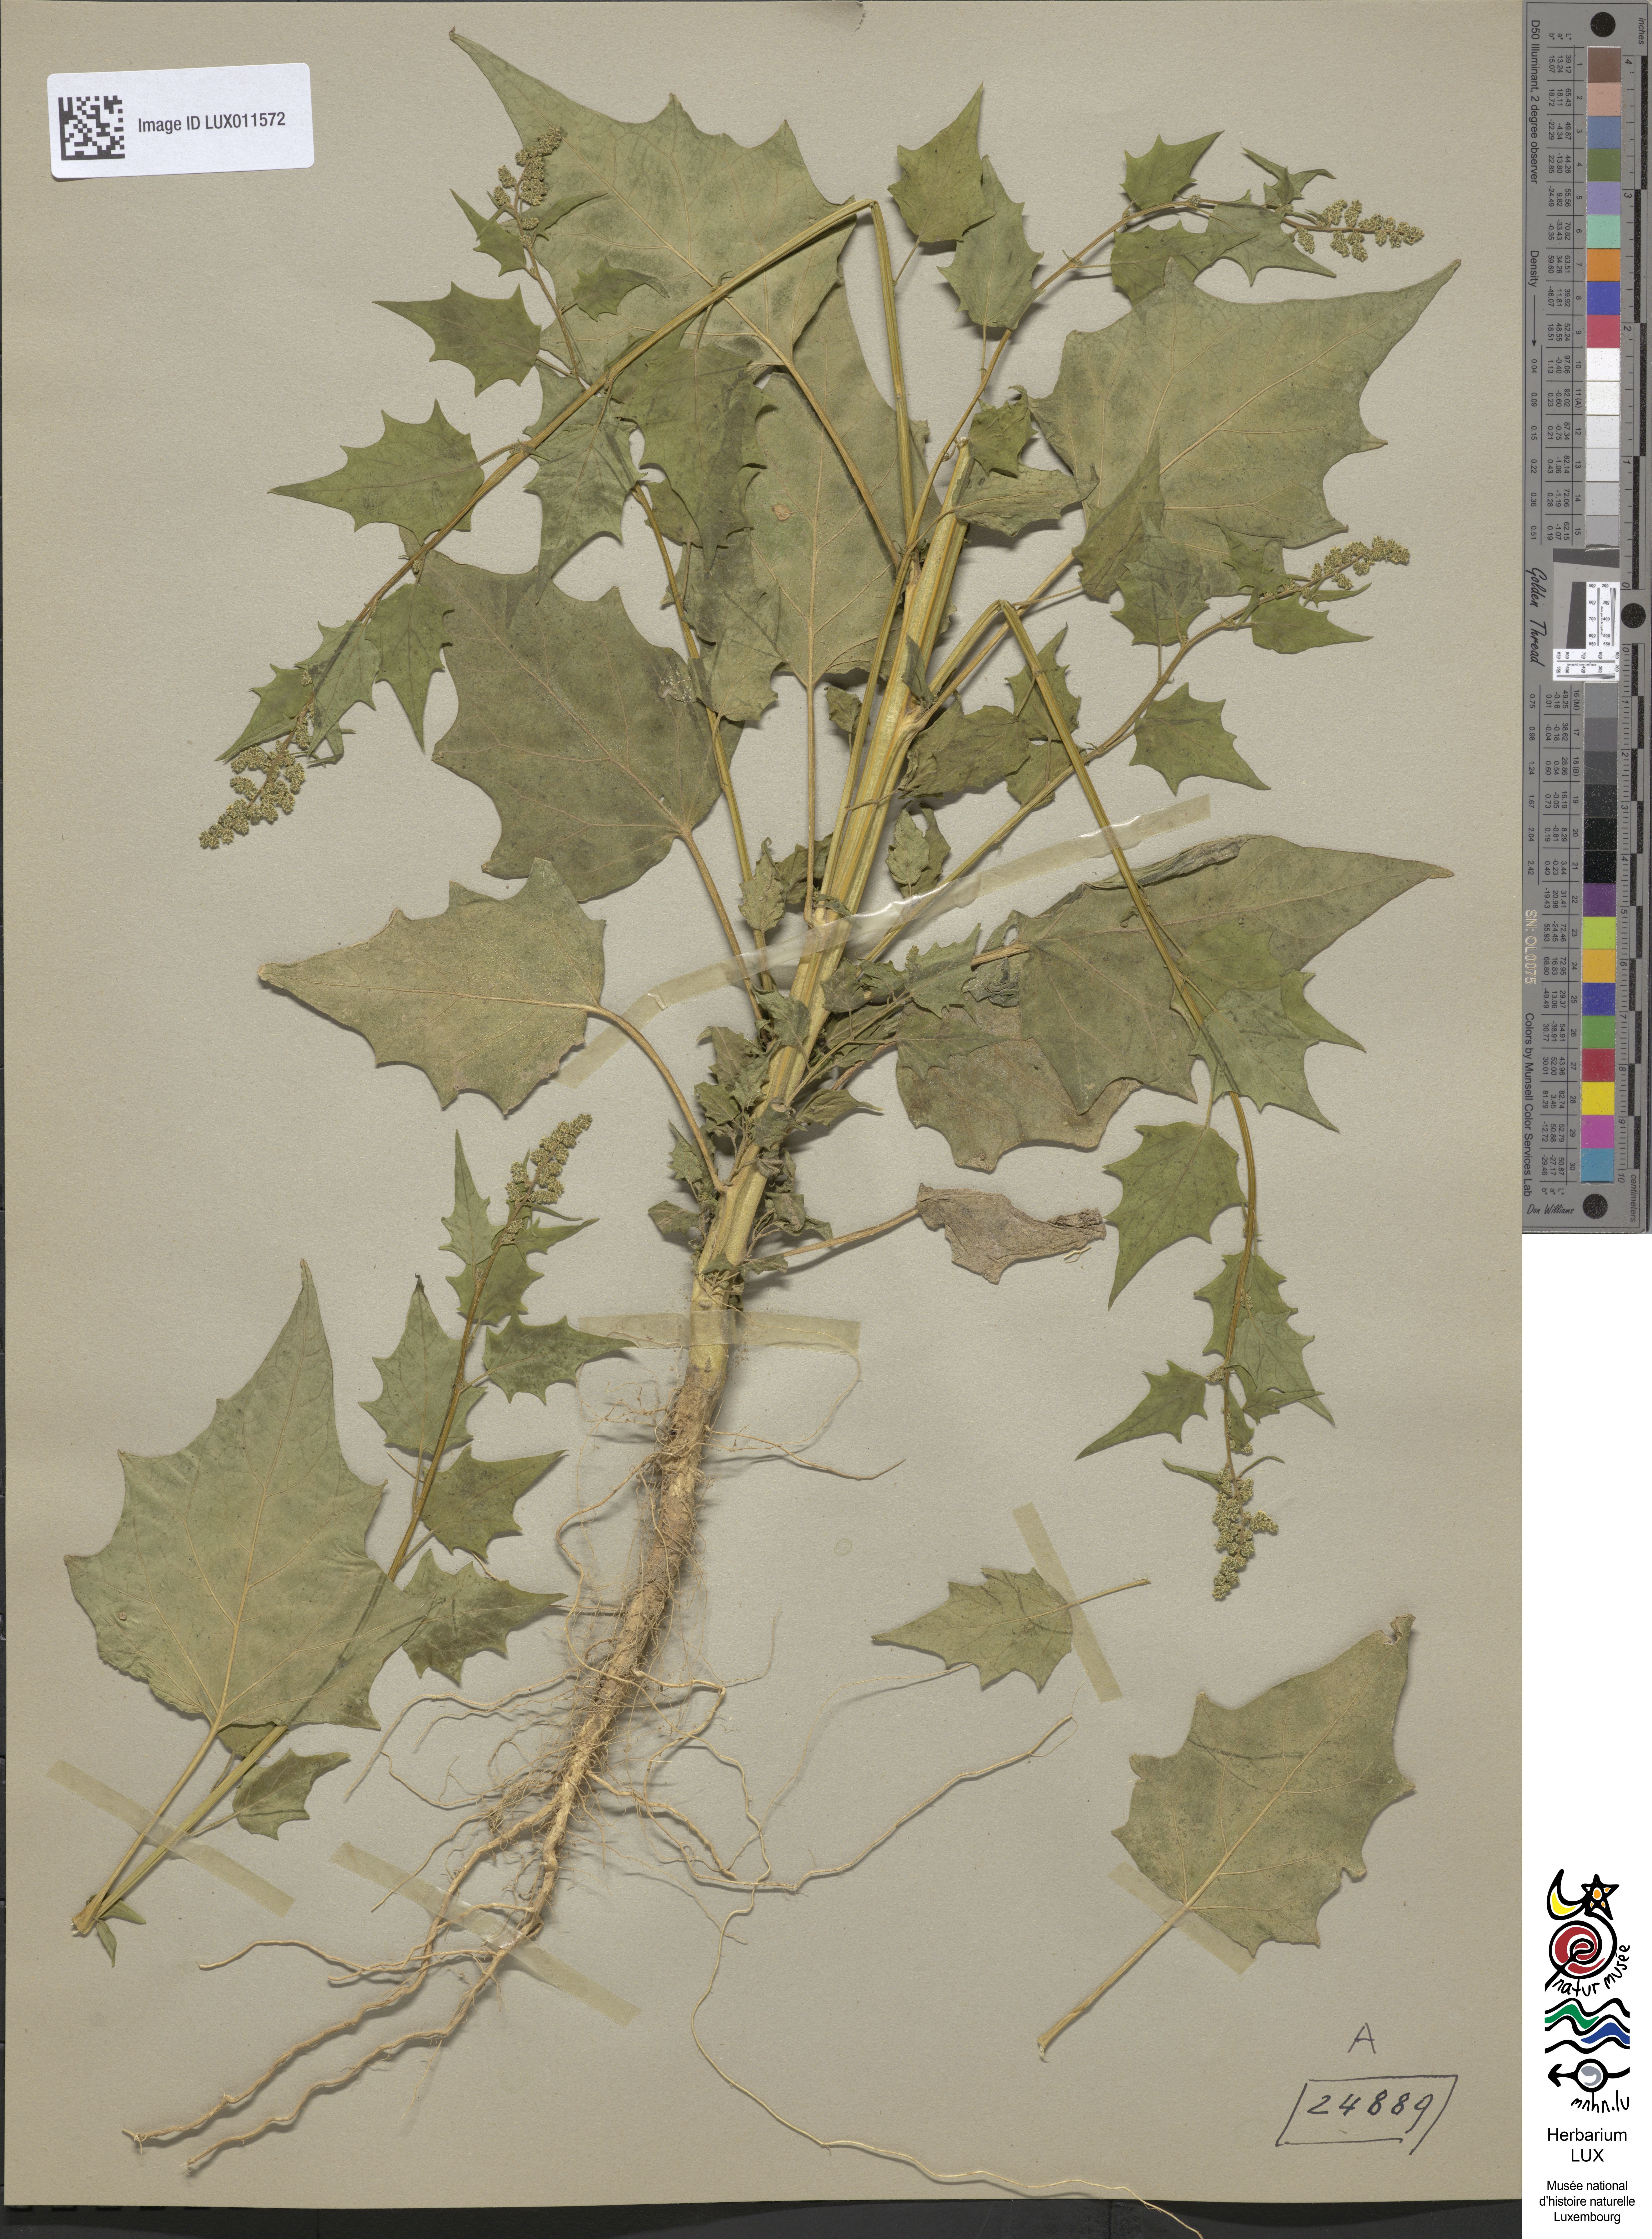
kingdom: Plantae
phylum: Tracheophyta
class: Magnoliopsida
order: Caryophyllales
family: Amaranthaceae
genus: Chenopodiastrum
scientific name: Chenopodiastrum hybridum
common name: Mapleleaf goosefoot
